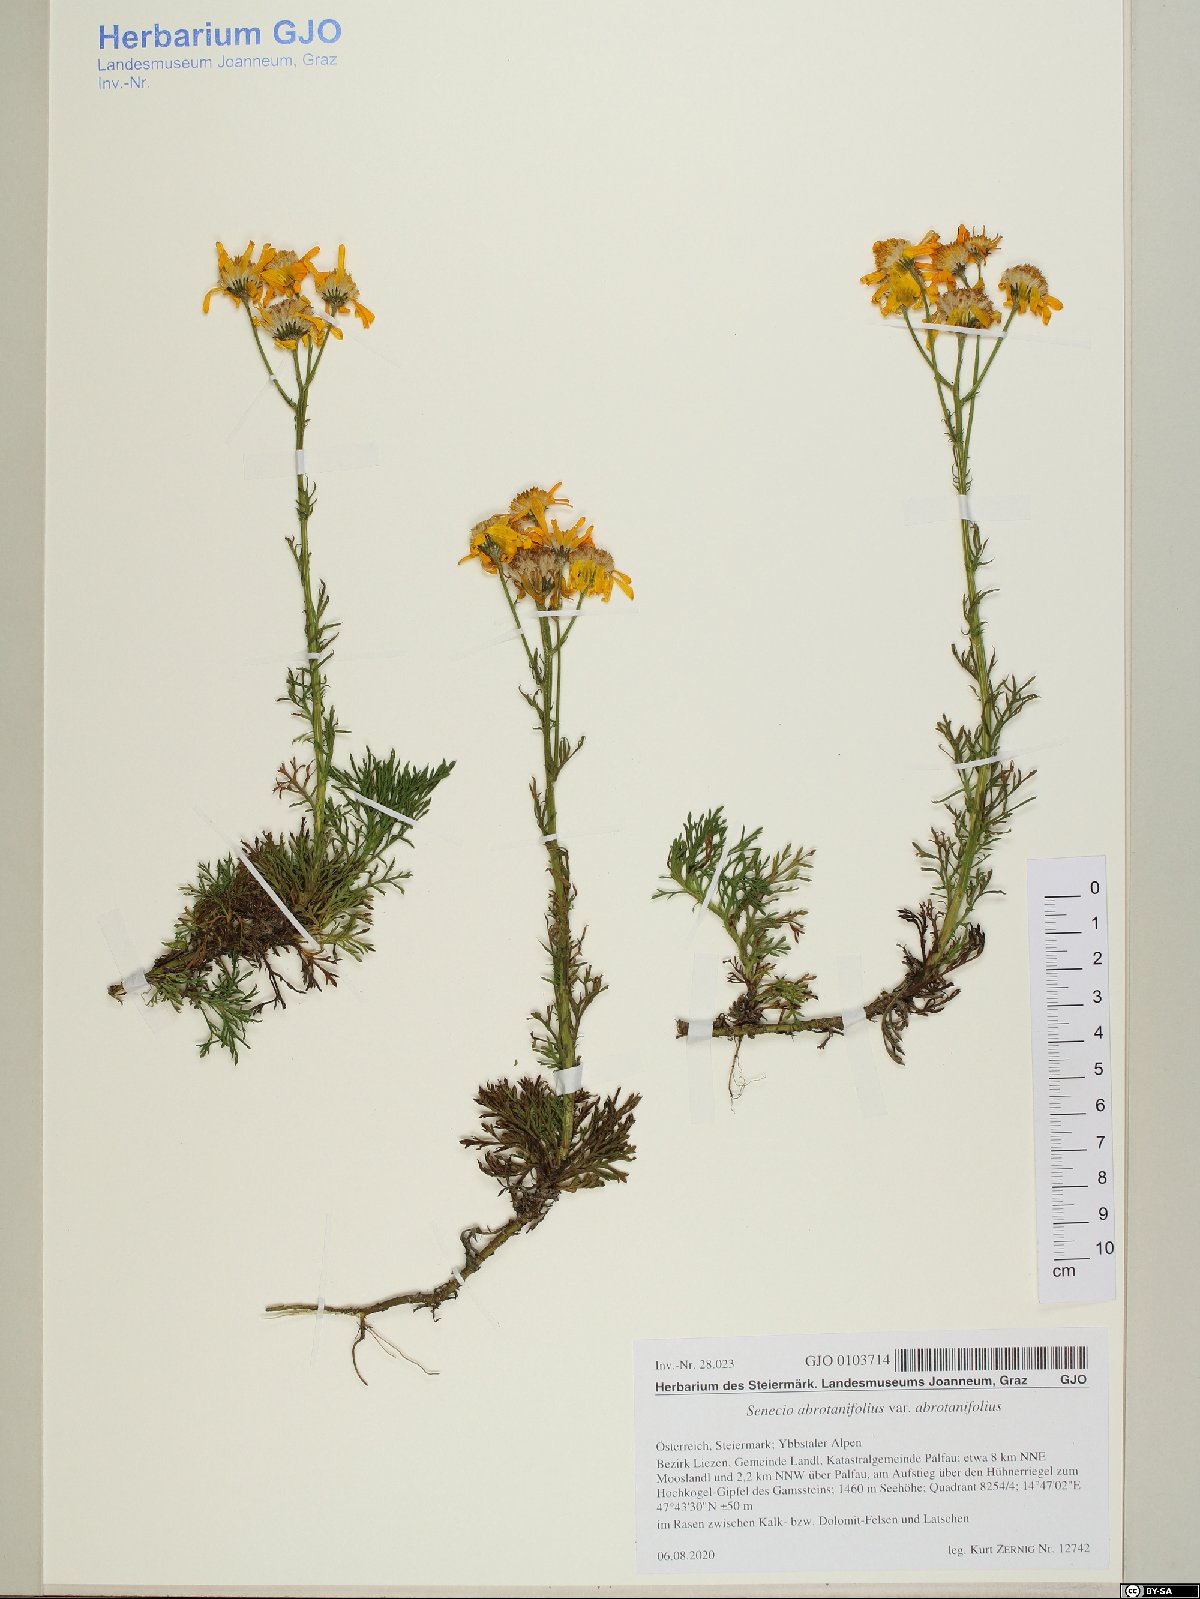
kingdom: Plantae
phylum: Tracheophyta
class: Magnoliopsida
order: Asterales
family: Asteraceae
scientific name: Asteraceae
